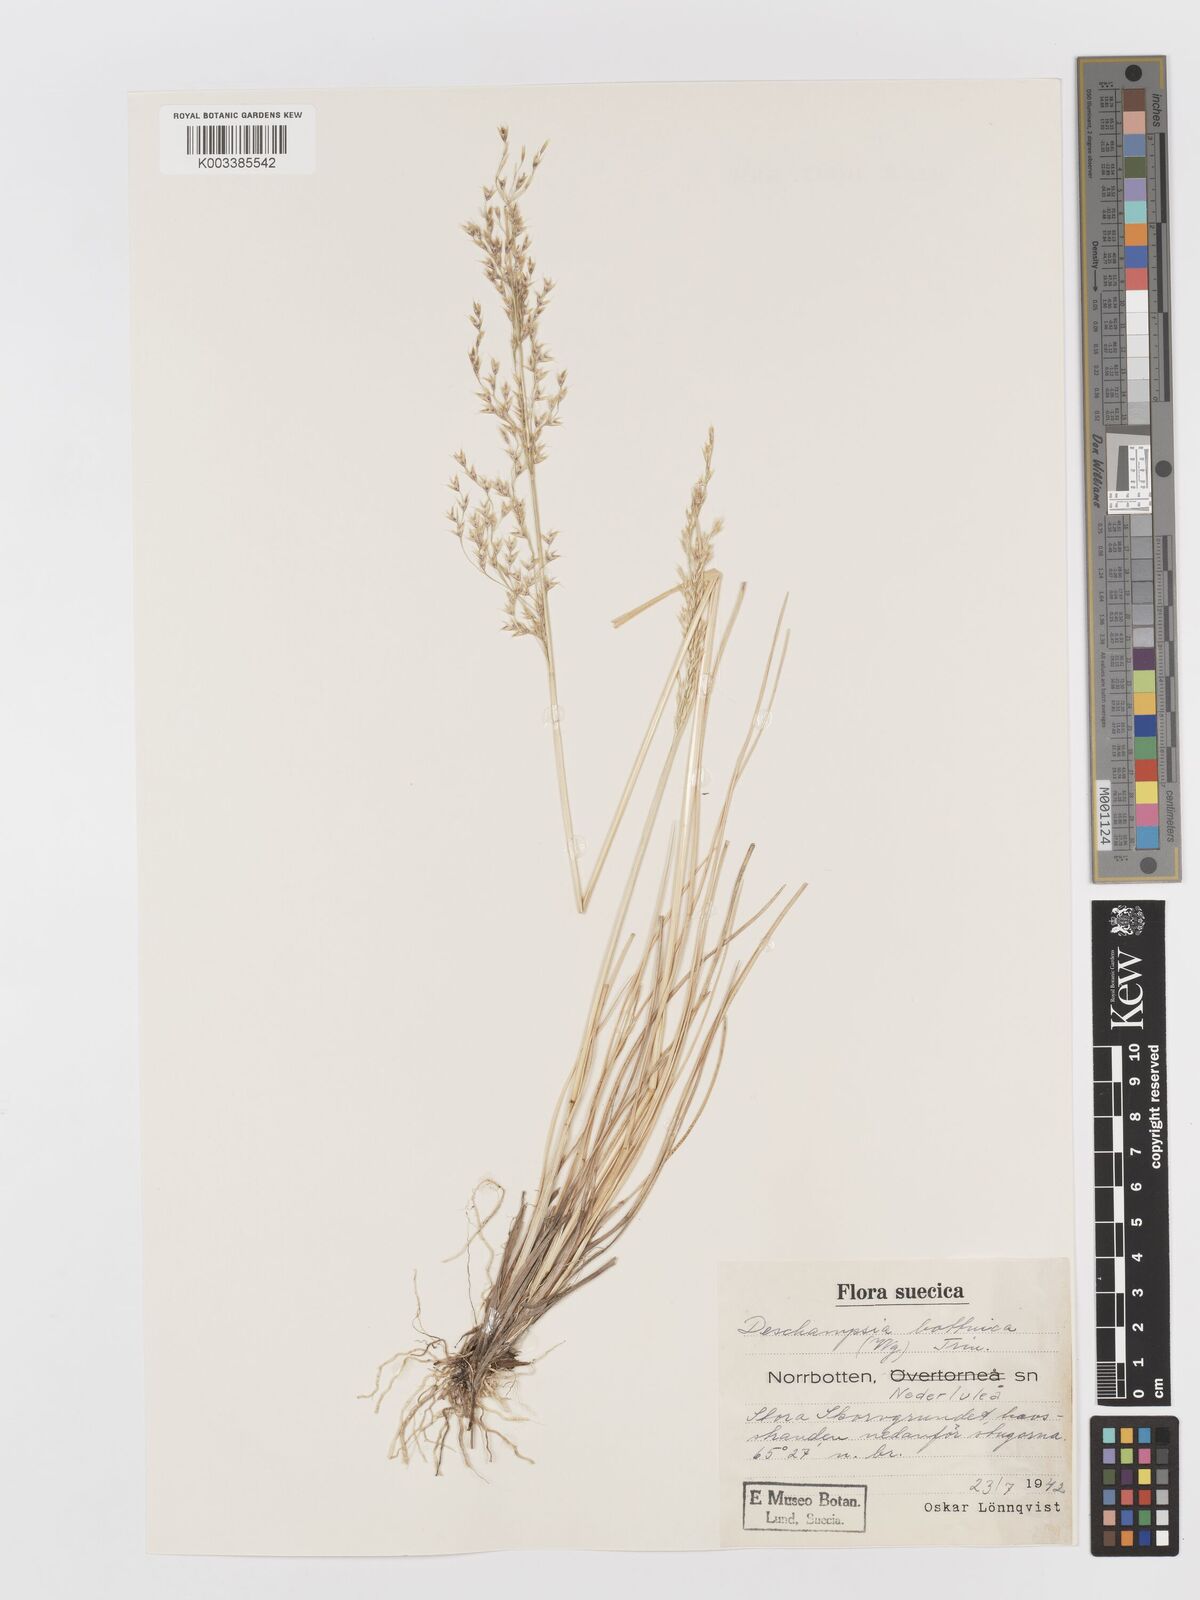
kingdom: Plantae
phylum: Tracheophyta
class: Liliopsida
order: Poales
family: Poaceae
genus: Deschampsia
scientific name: Deschampsia cespitosa
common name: Tufted hair-grass
